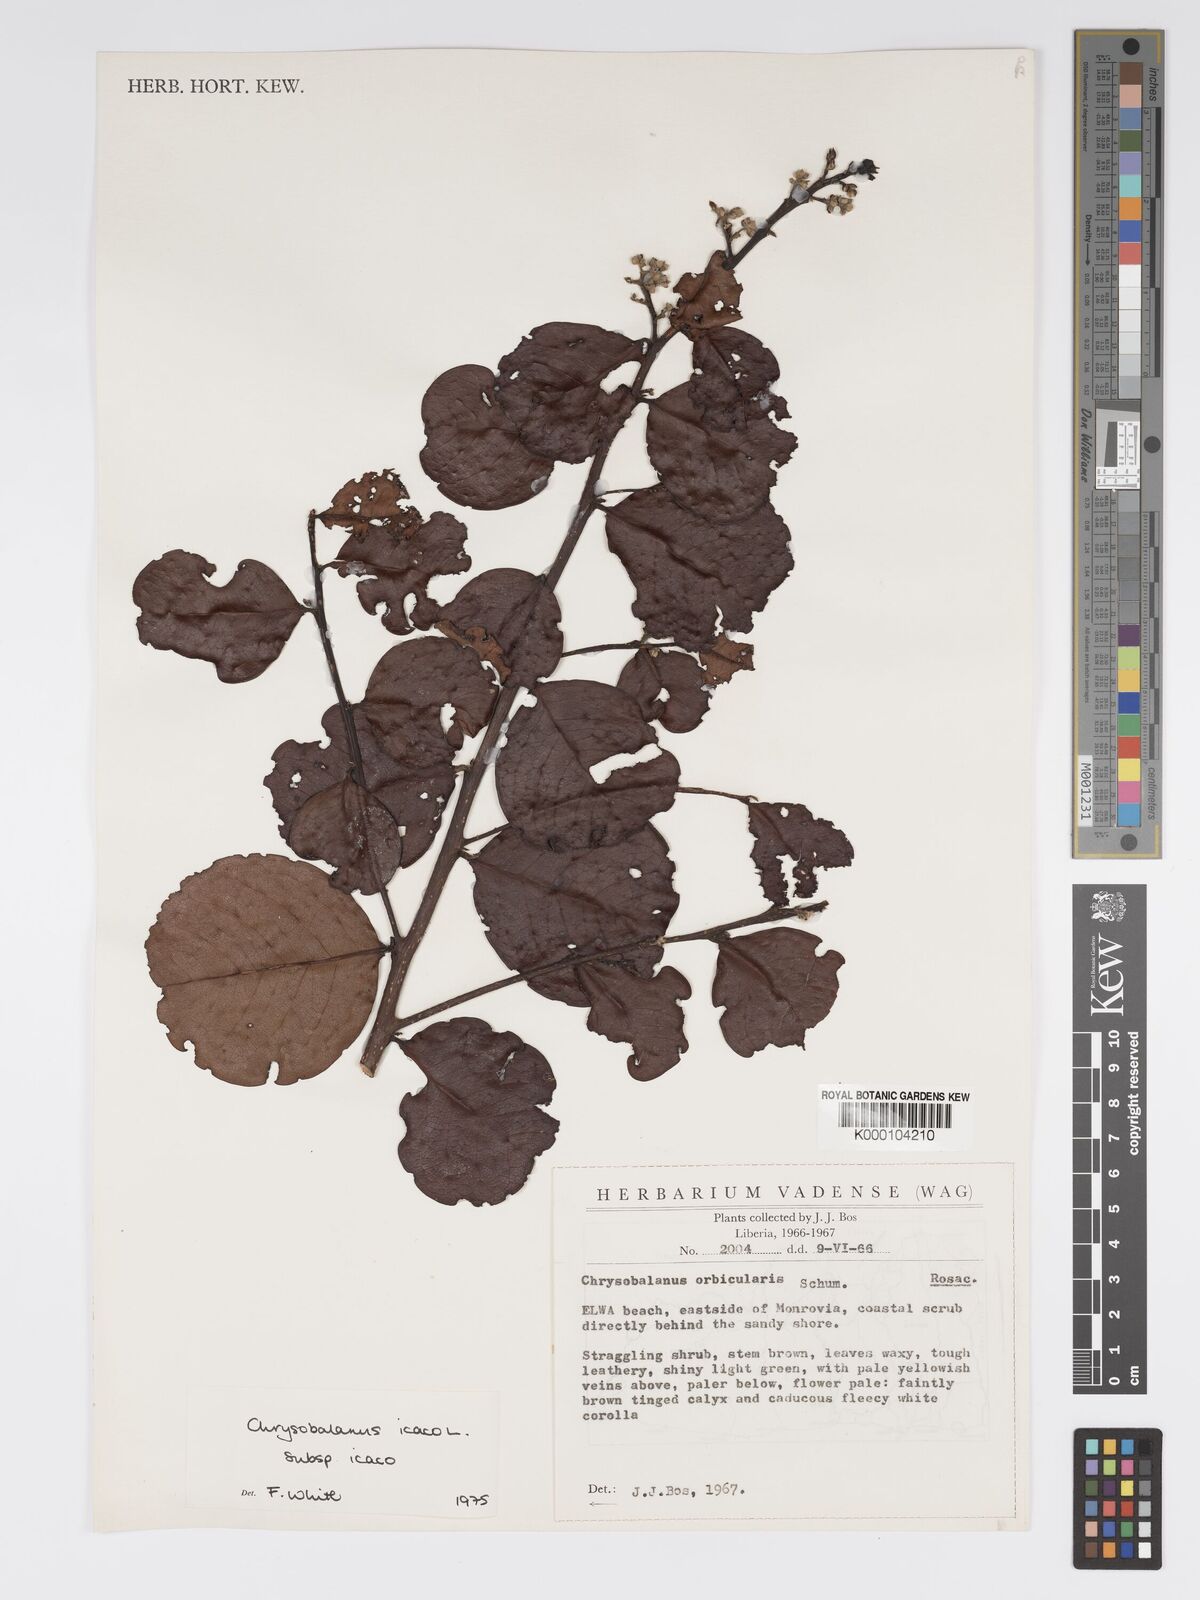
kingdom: Plantae
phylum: Tracheophyta
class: Magnoliopsida
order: Malpighiales
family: Chrysobalanaceae
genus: Chrysobalanus
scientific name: Chrysobalanus icaco
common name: Coco plum
